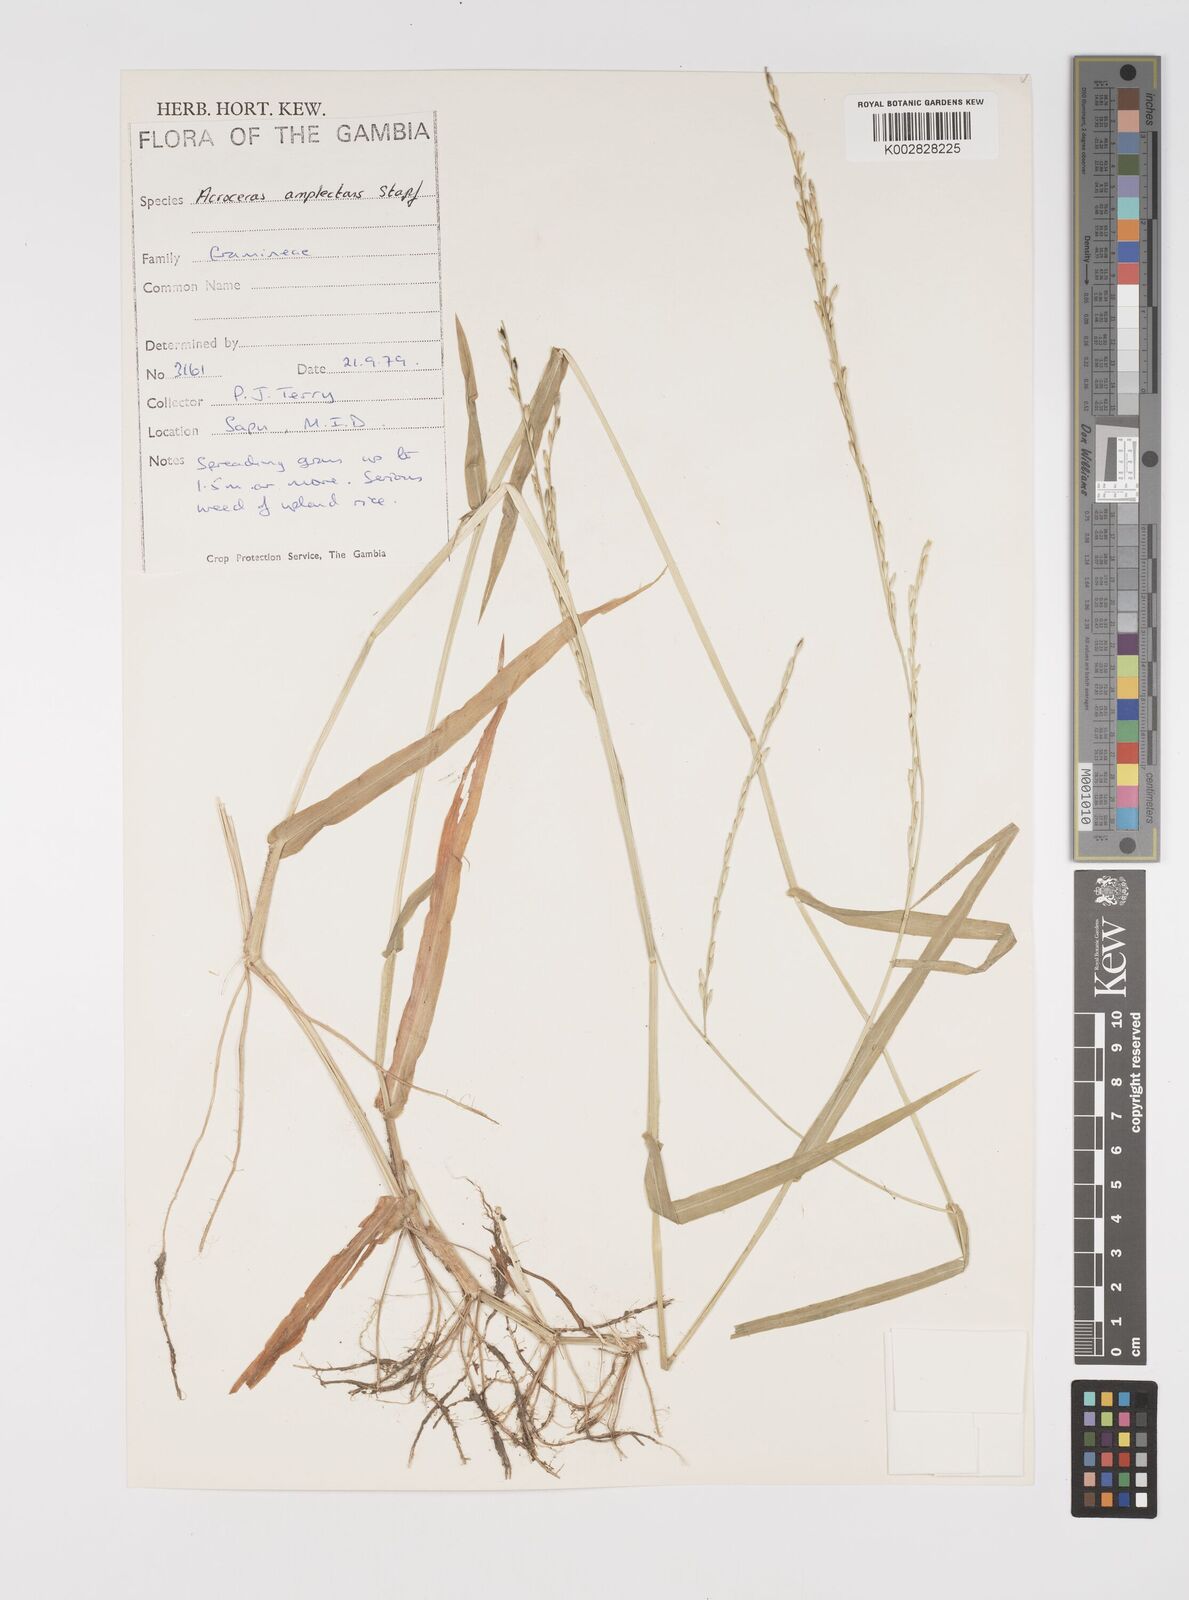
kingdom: Plantae
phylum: Tracheophyta
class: Liliopsida
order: Poales
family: Poaceae
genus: Acroceras
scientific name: Acroceras amplectens
